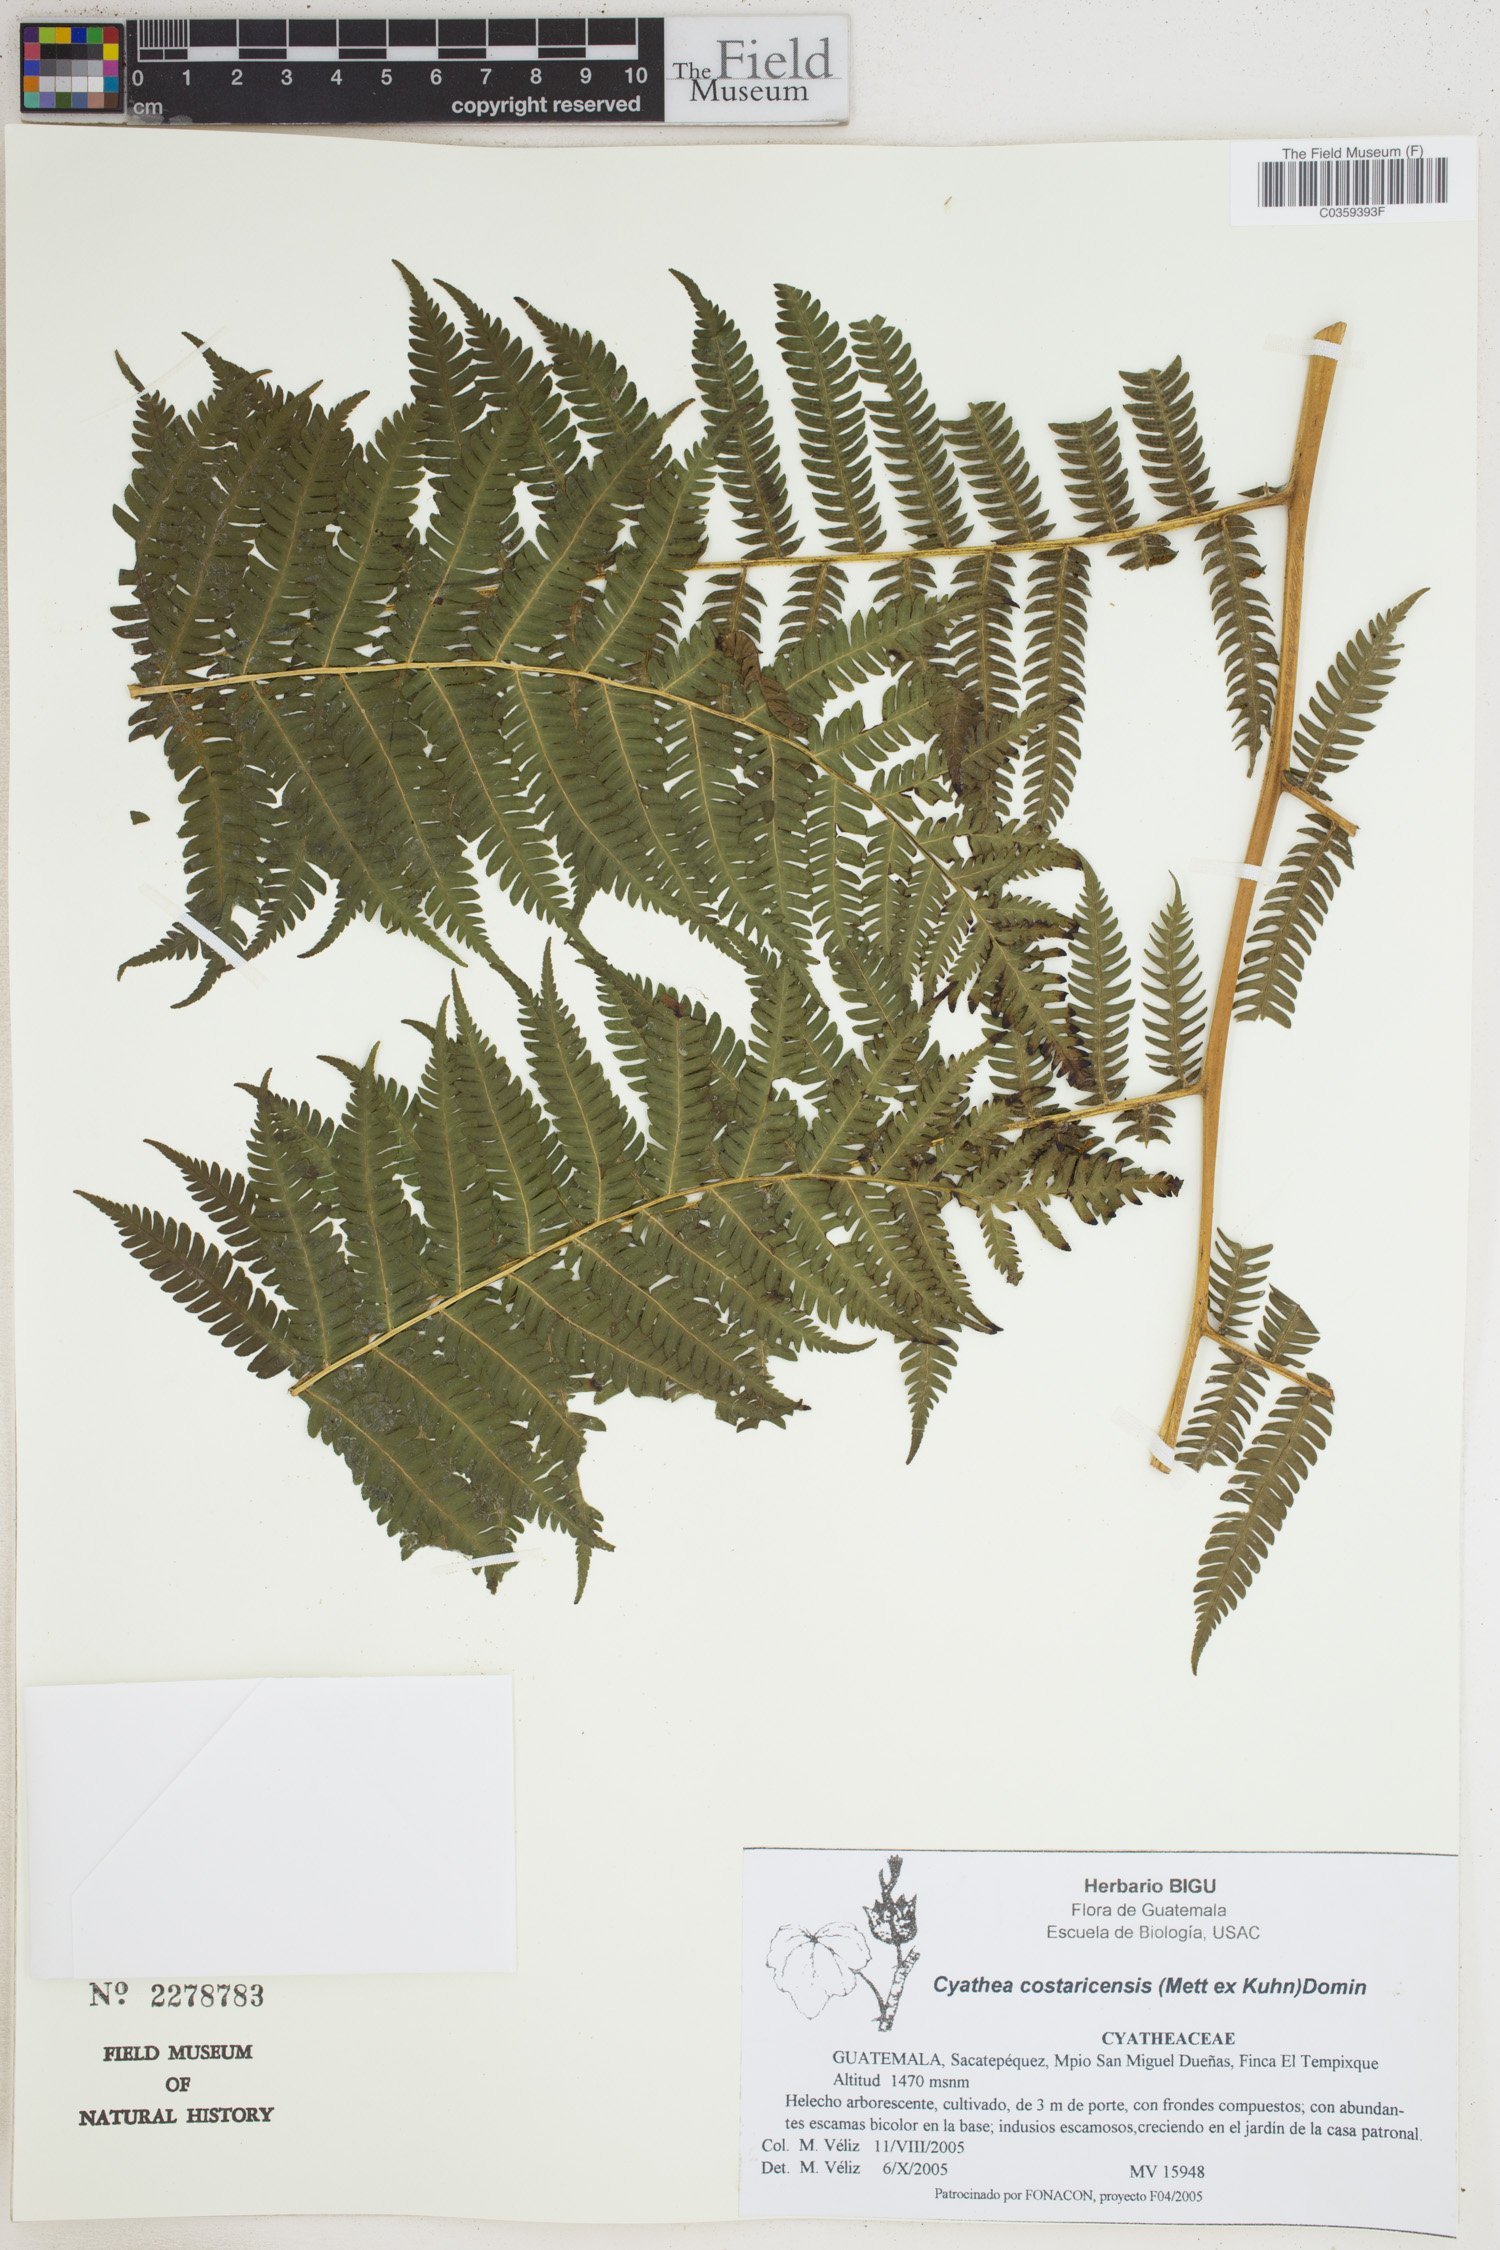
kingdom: Plantae
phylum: Tracheophyta
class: Polypodiopsida
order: Cyatheales
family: Cyatheaceae
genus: Cyathea
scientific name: Cyathea costaricensis
